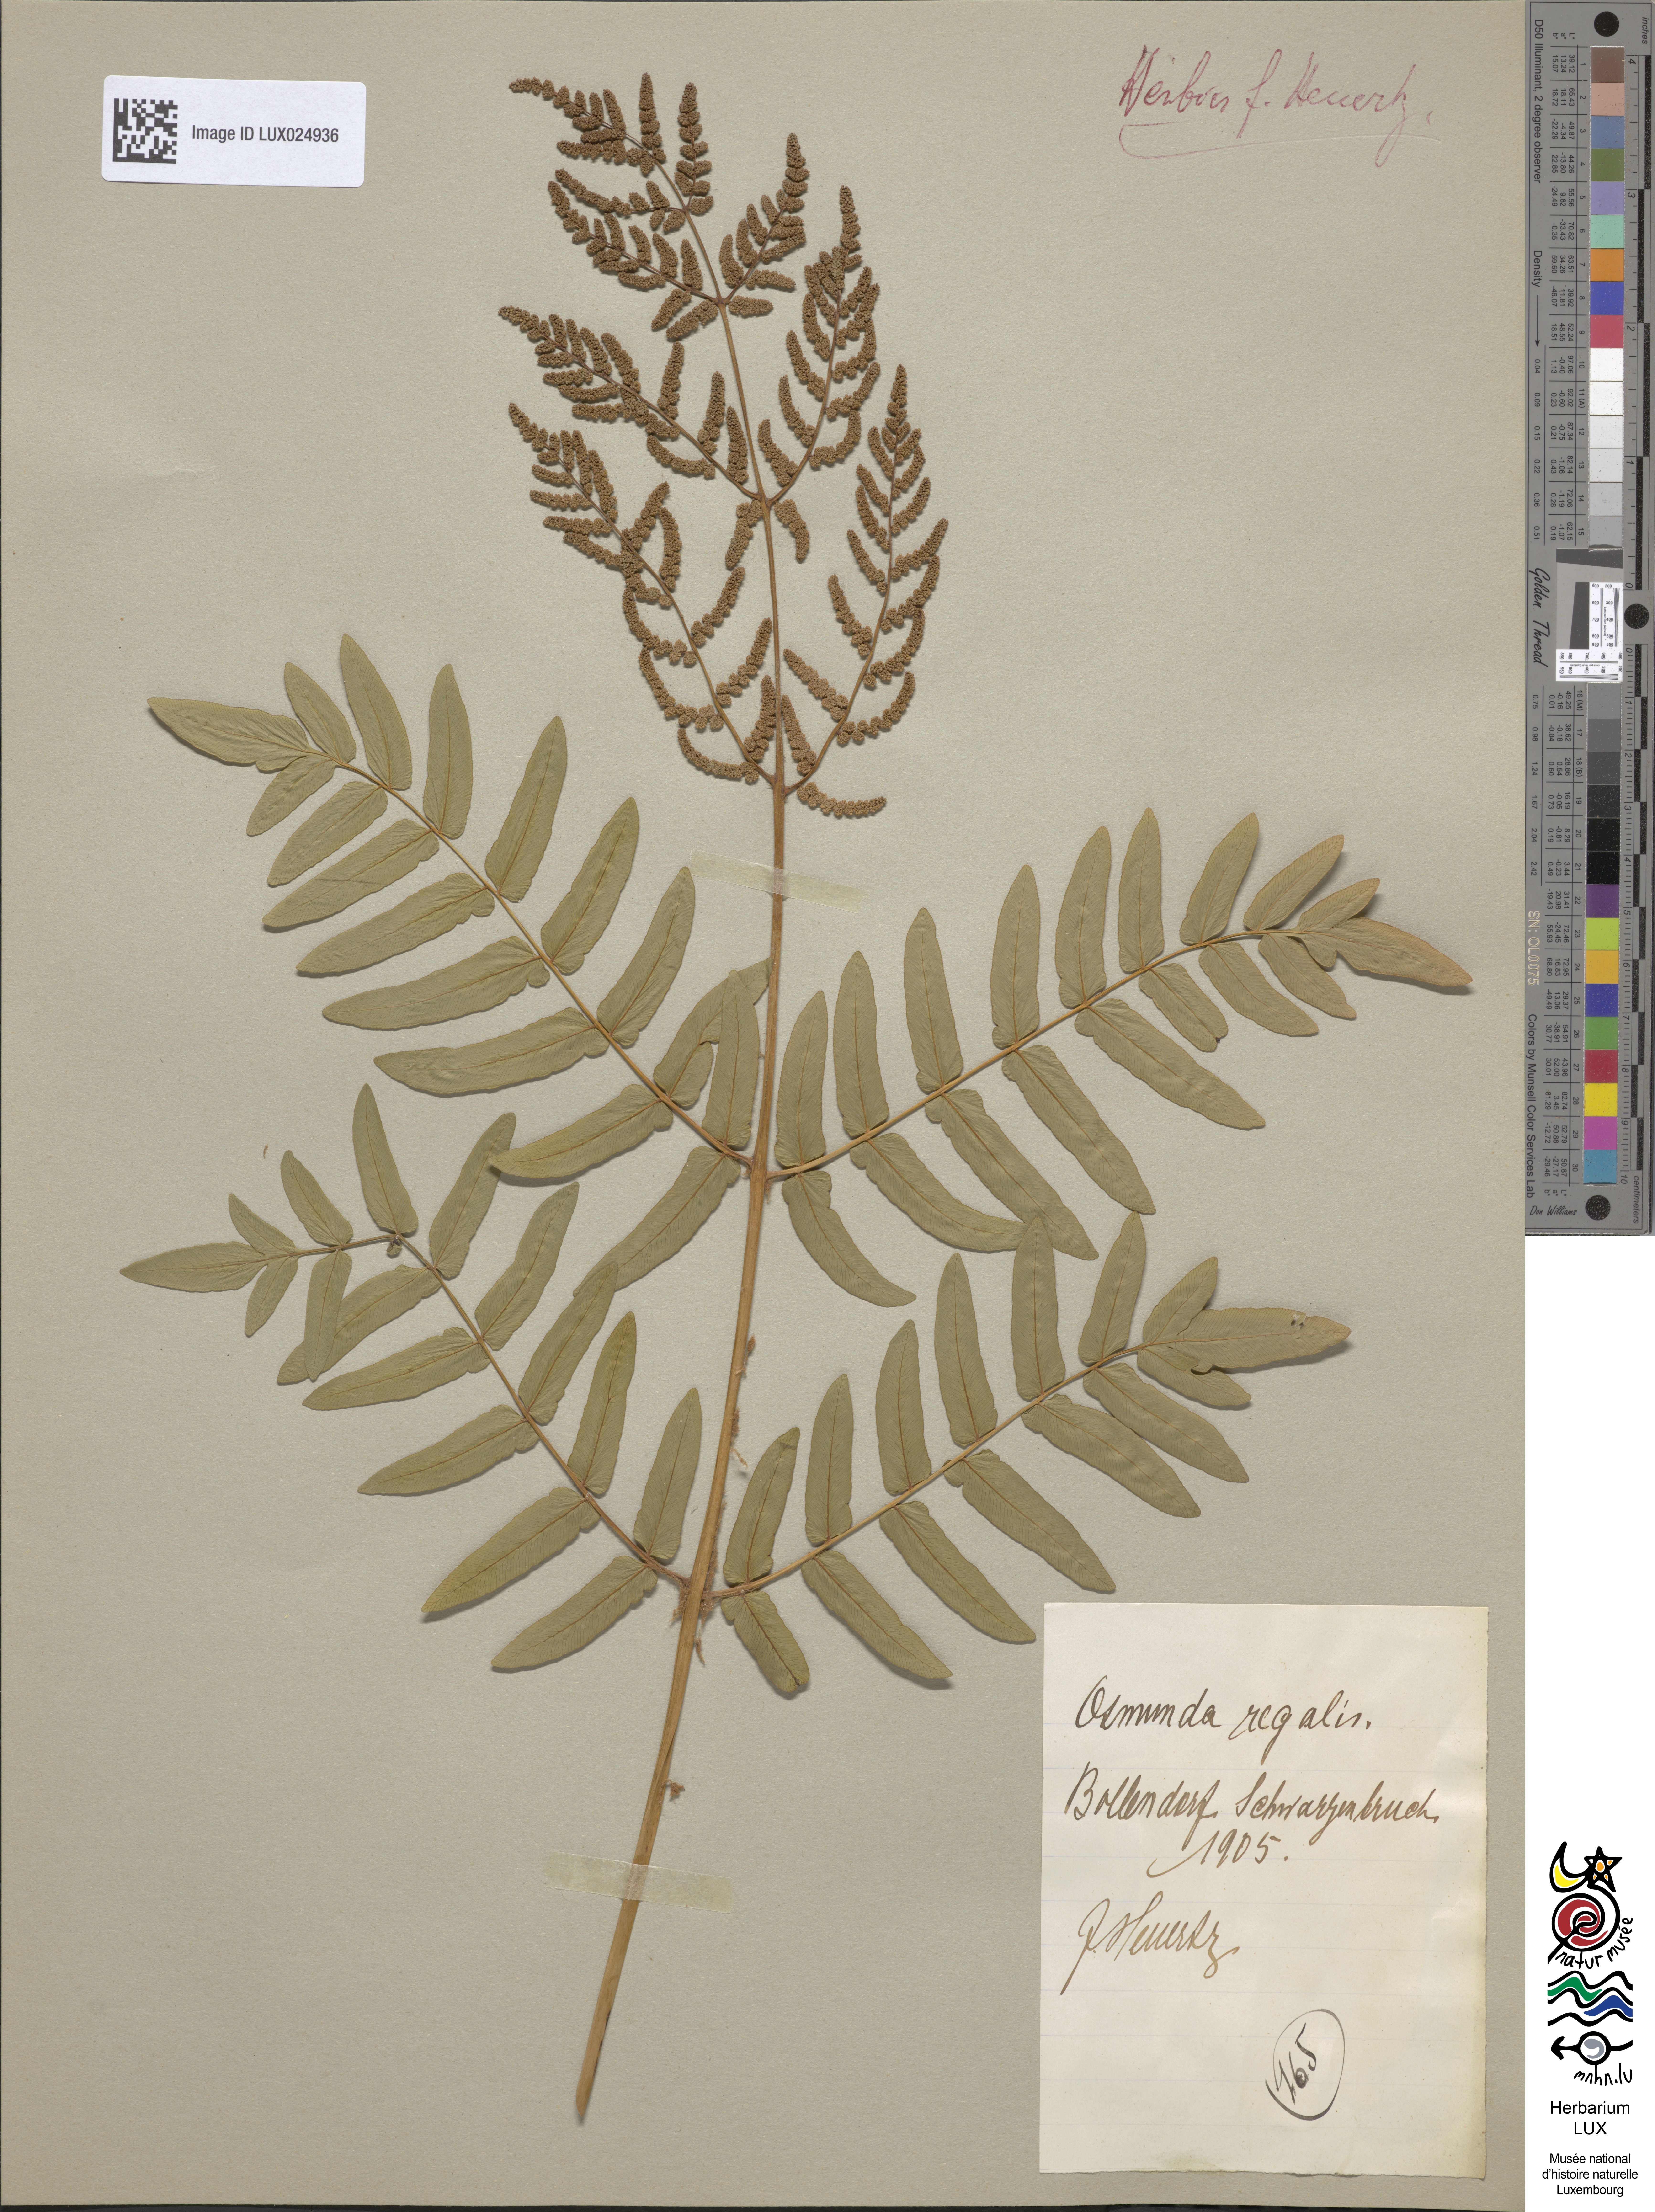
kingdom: Plantae
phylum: Tracheophyta
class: Polypodiopsida
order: Osmundales
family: Osmundaceae
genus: Osmunda
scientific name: Osmunda regalis
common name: Royal fern
